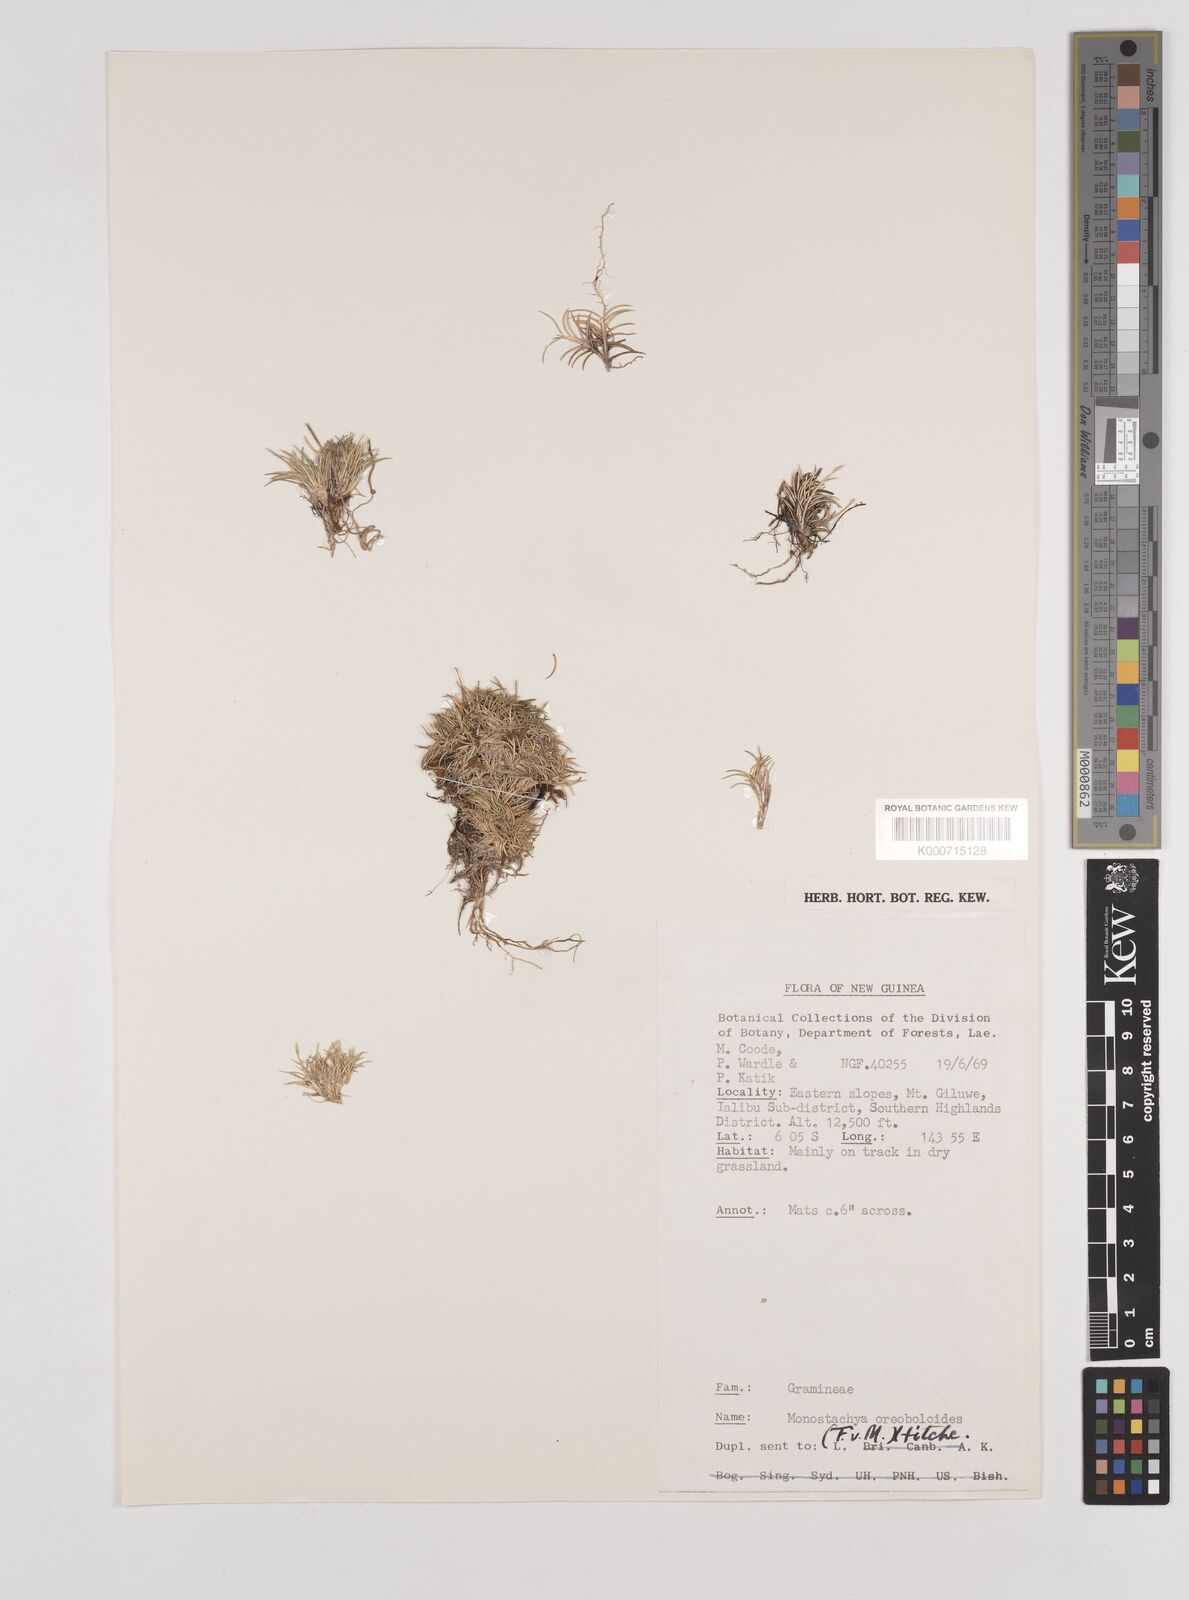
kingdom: Plantae
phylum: Tracheophyta
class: Liliopsida
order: Poales
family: Poaceae
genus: Rytidosperma
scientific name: Rytidosperma oreoboloides
